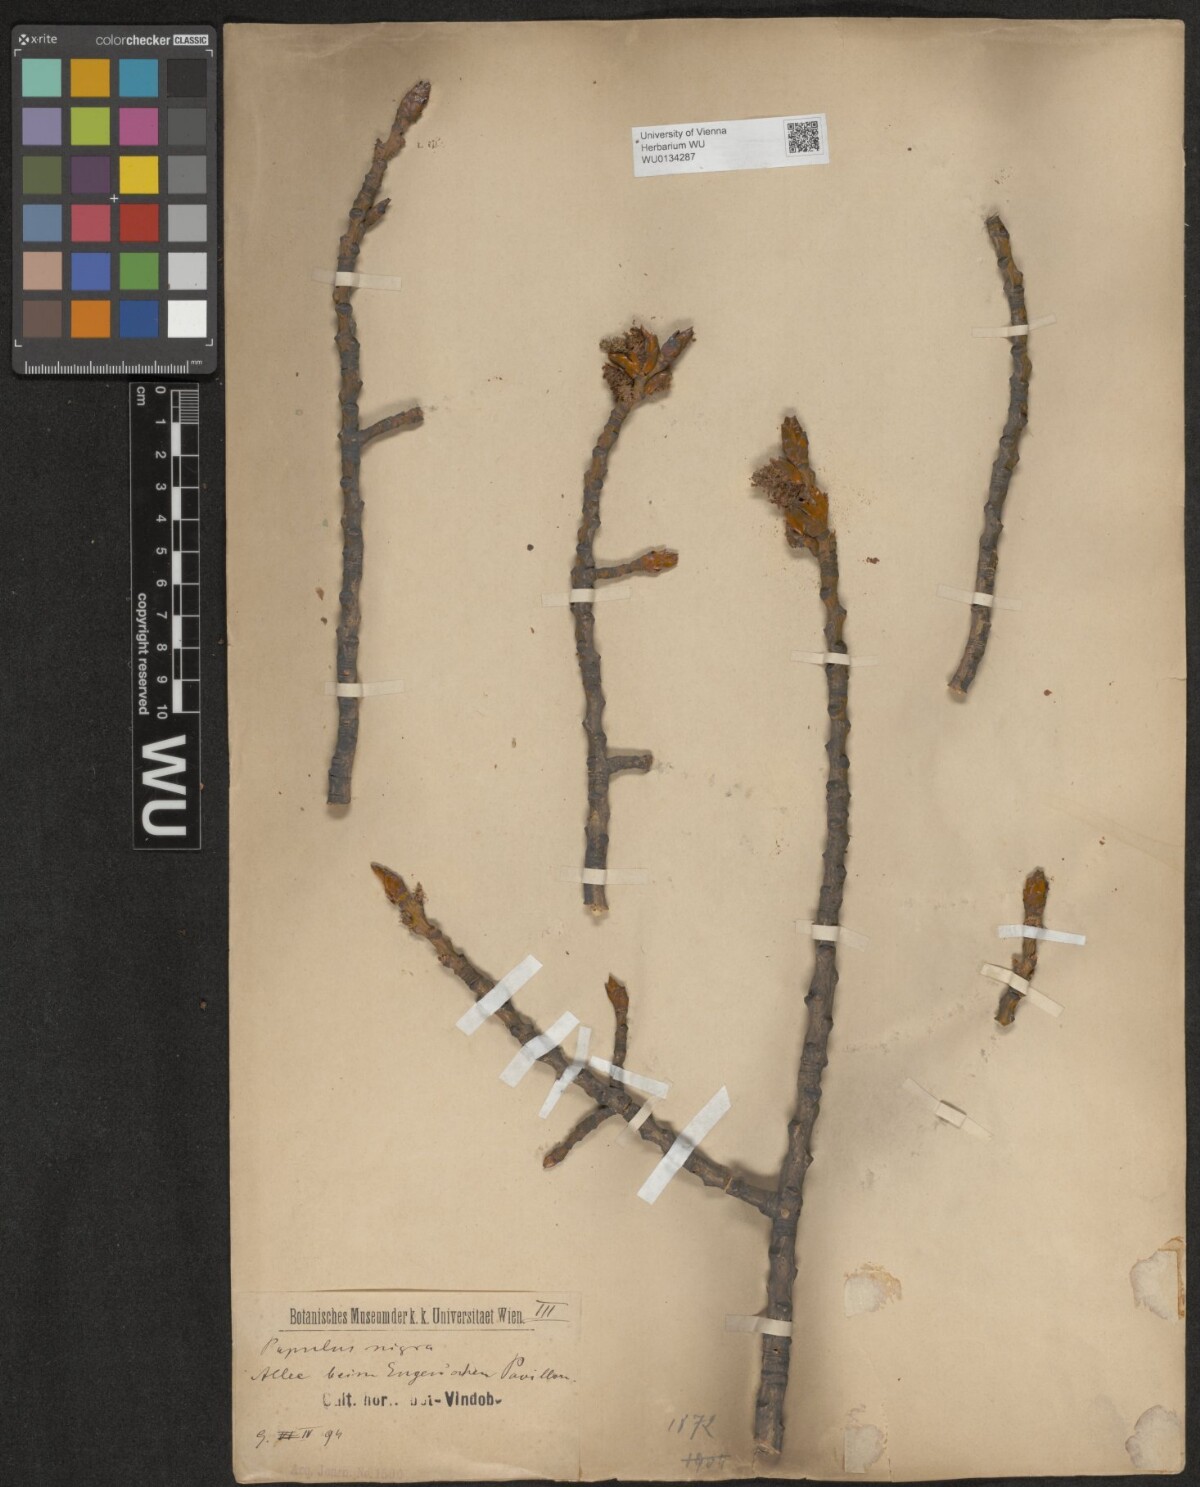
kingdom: Plantae
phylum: Tracheophyta
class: Magnoliopsida
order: Malpighiales
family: Salicaceae
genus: Populus
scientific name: Populus nigra
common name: Black poplar
